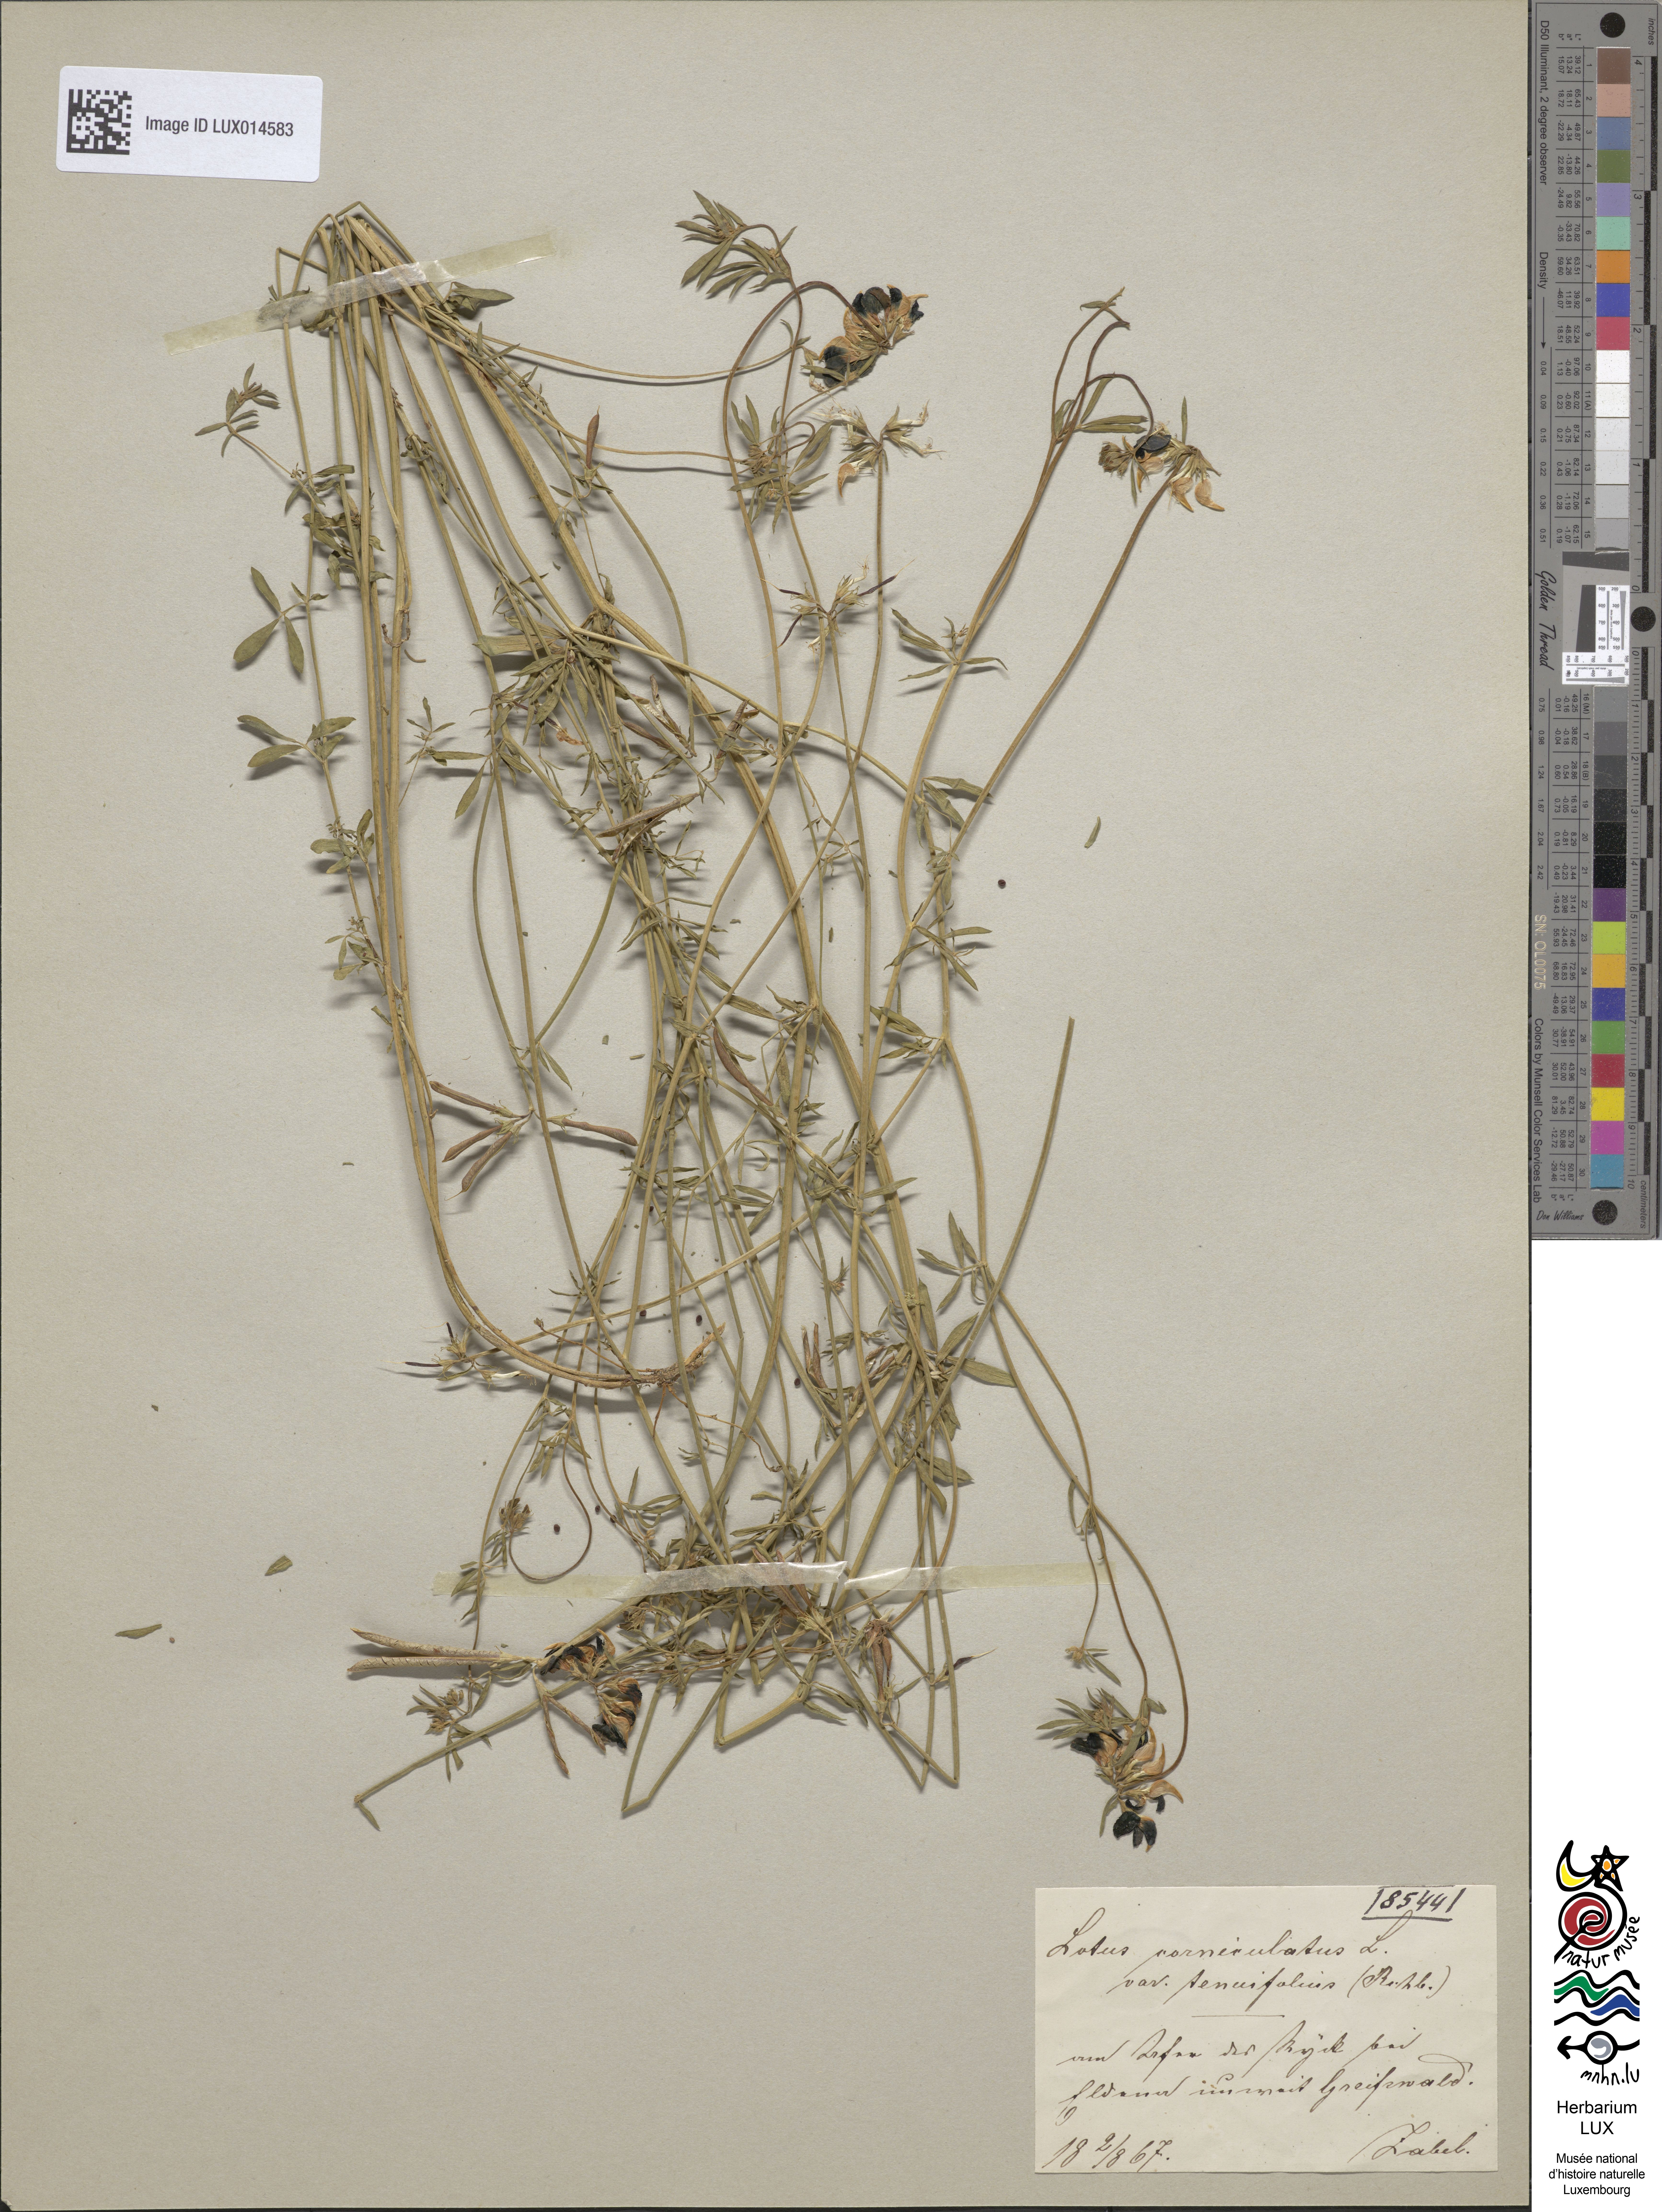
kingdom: Plantae
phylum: Tracheophyta
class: Magnoliopsida
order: Fabales
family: Fabaceae
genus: Lotus
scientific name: Lotus tenuis
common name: Narrow-leaved bird's-foot-trefoil
